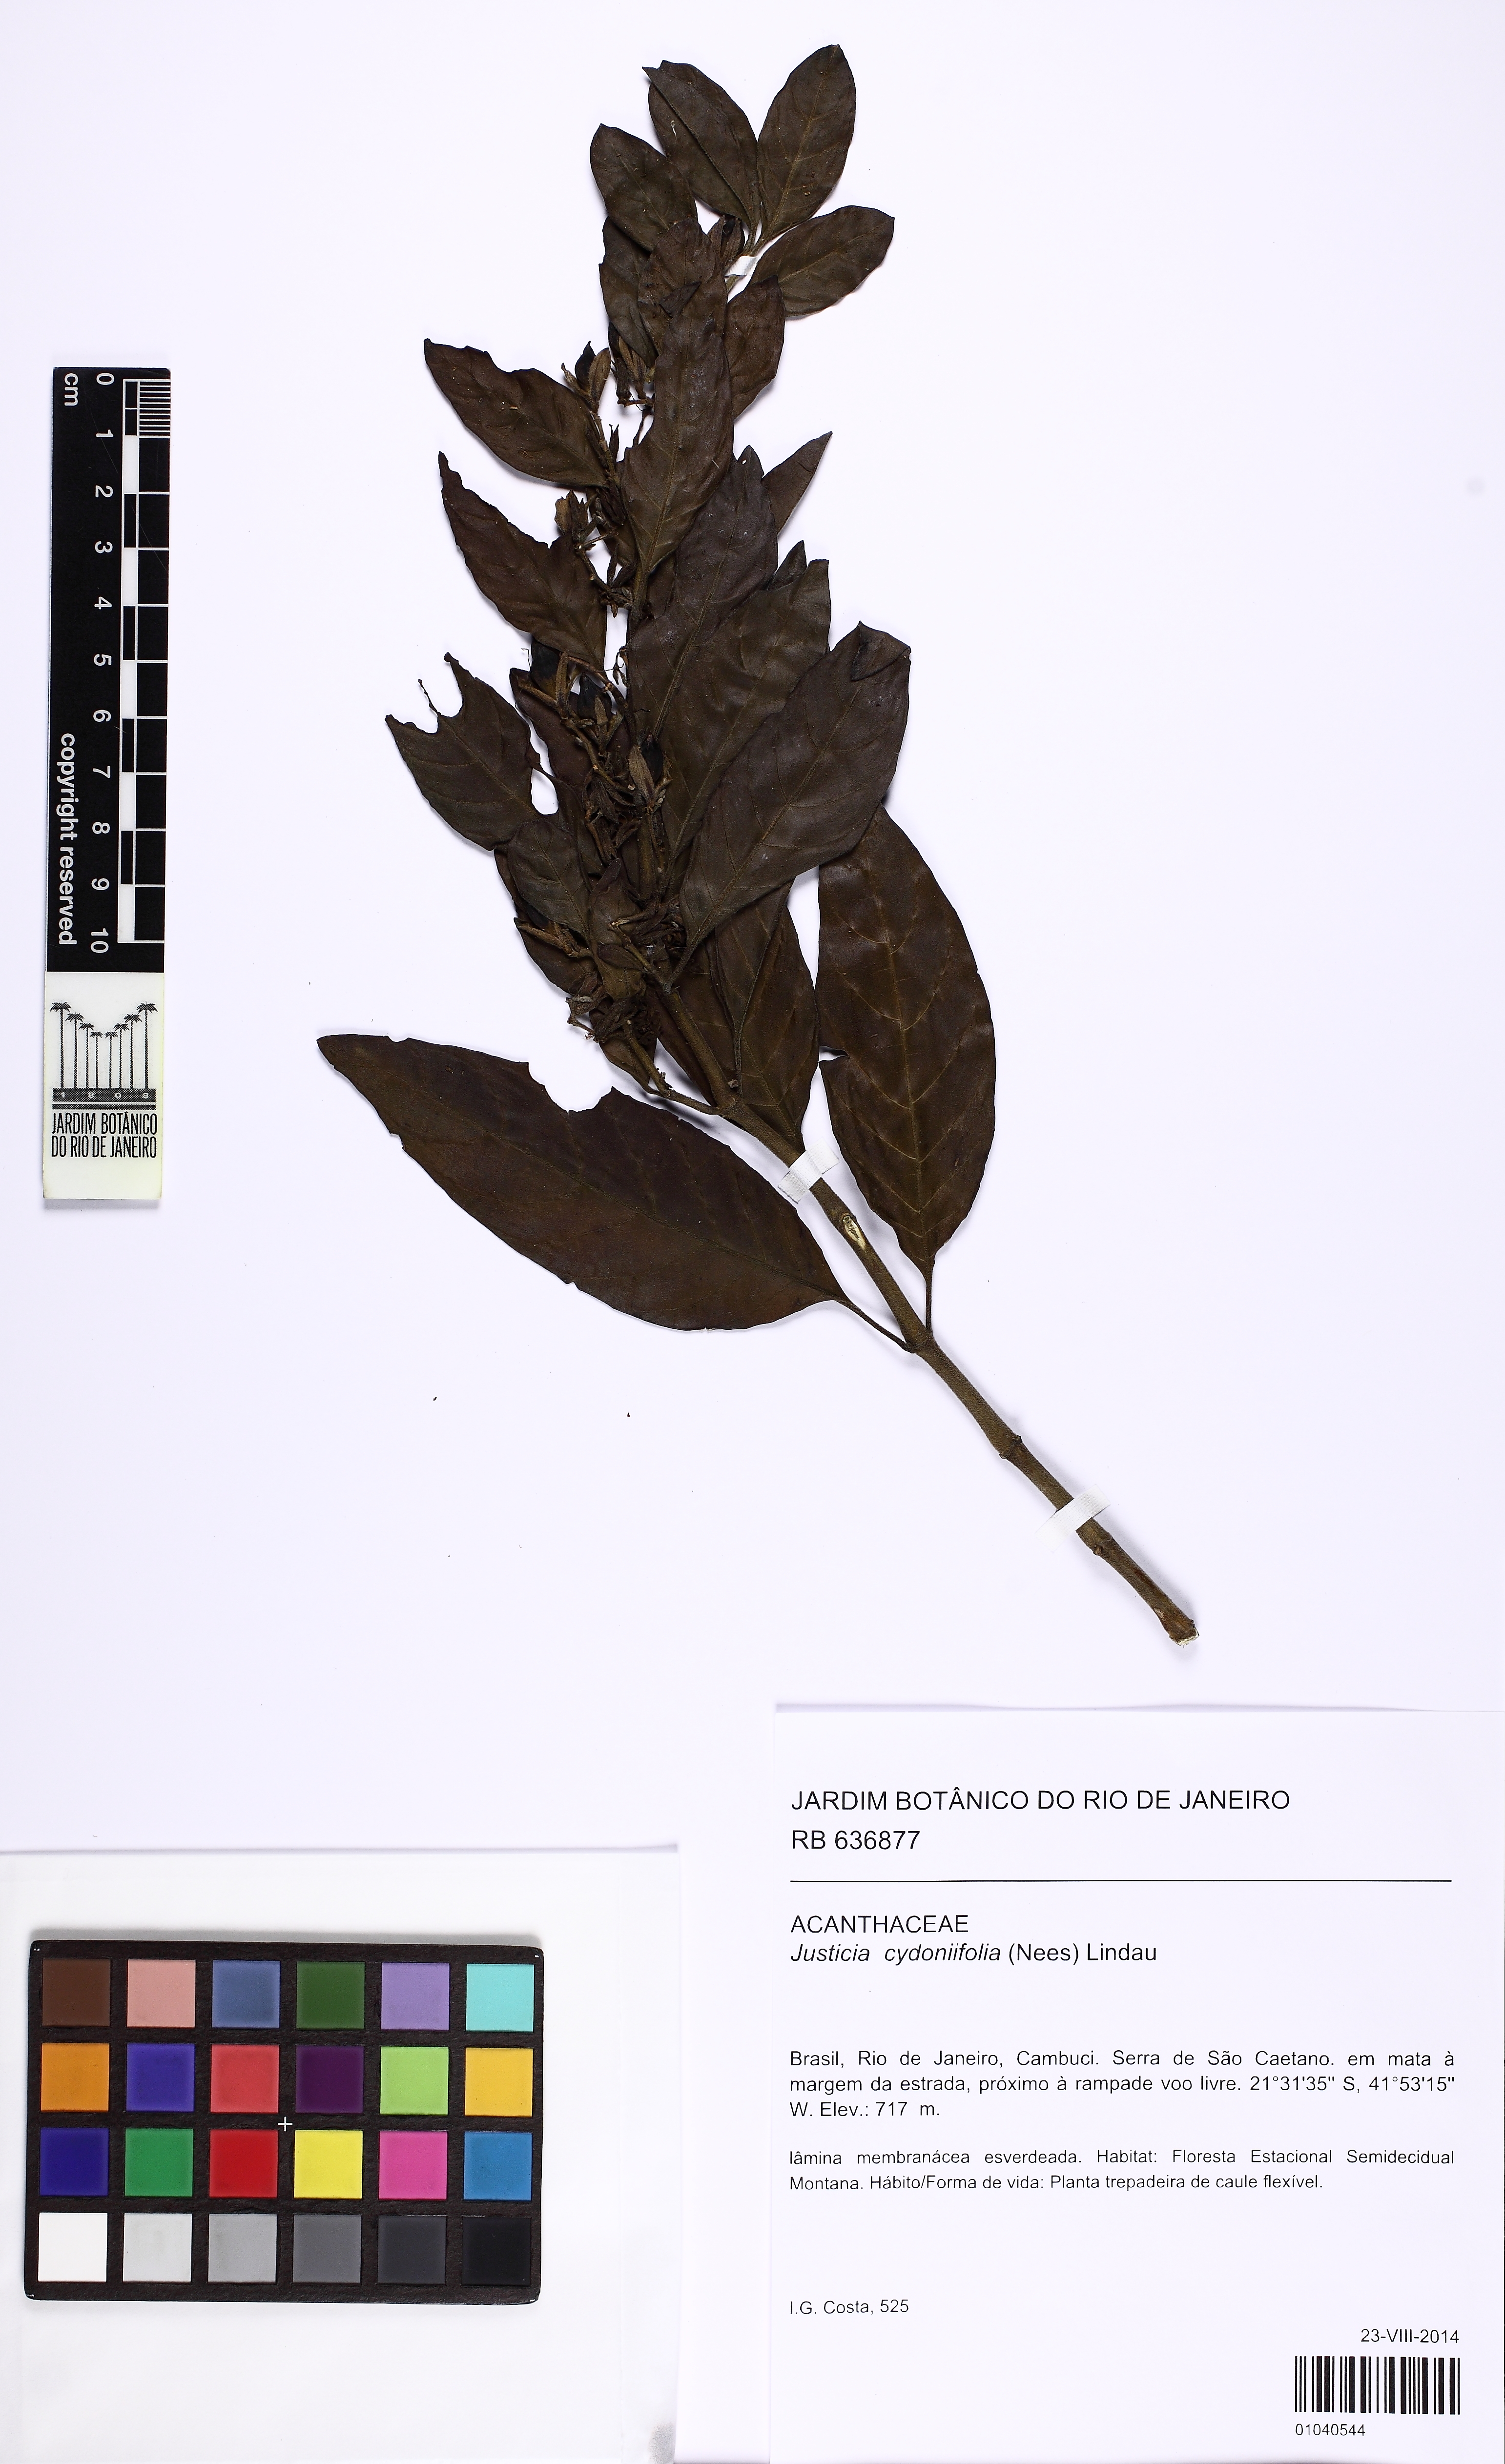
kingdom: Plantae
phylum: Tracheophyta
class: Magnoliopsida
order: Lamiales
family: Acanthaceae
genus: Justicia
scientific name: Justicia cydoniifolia
